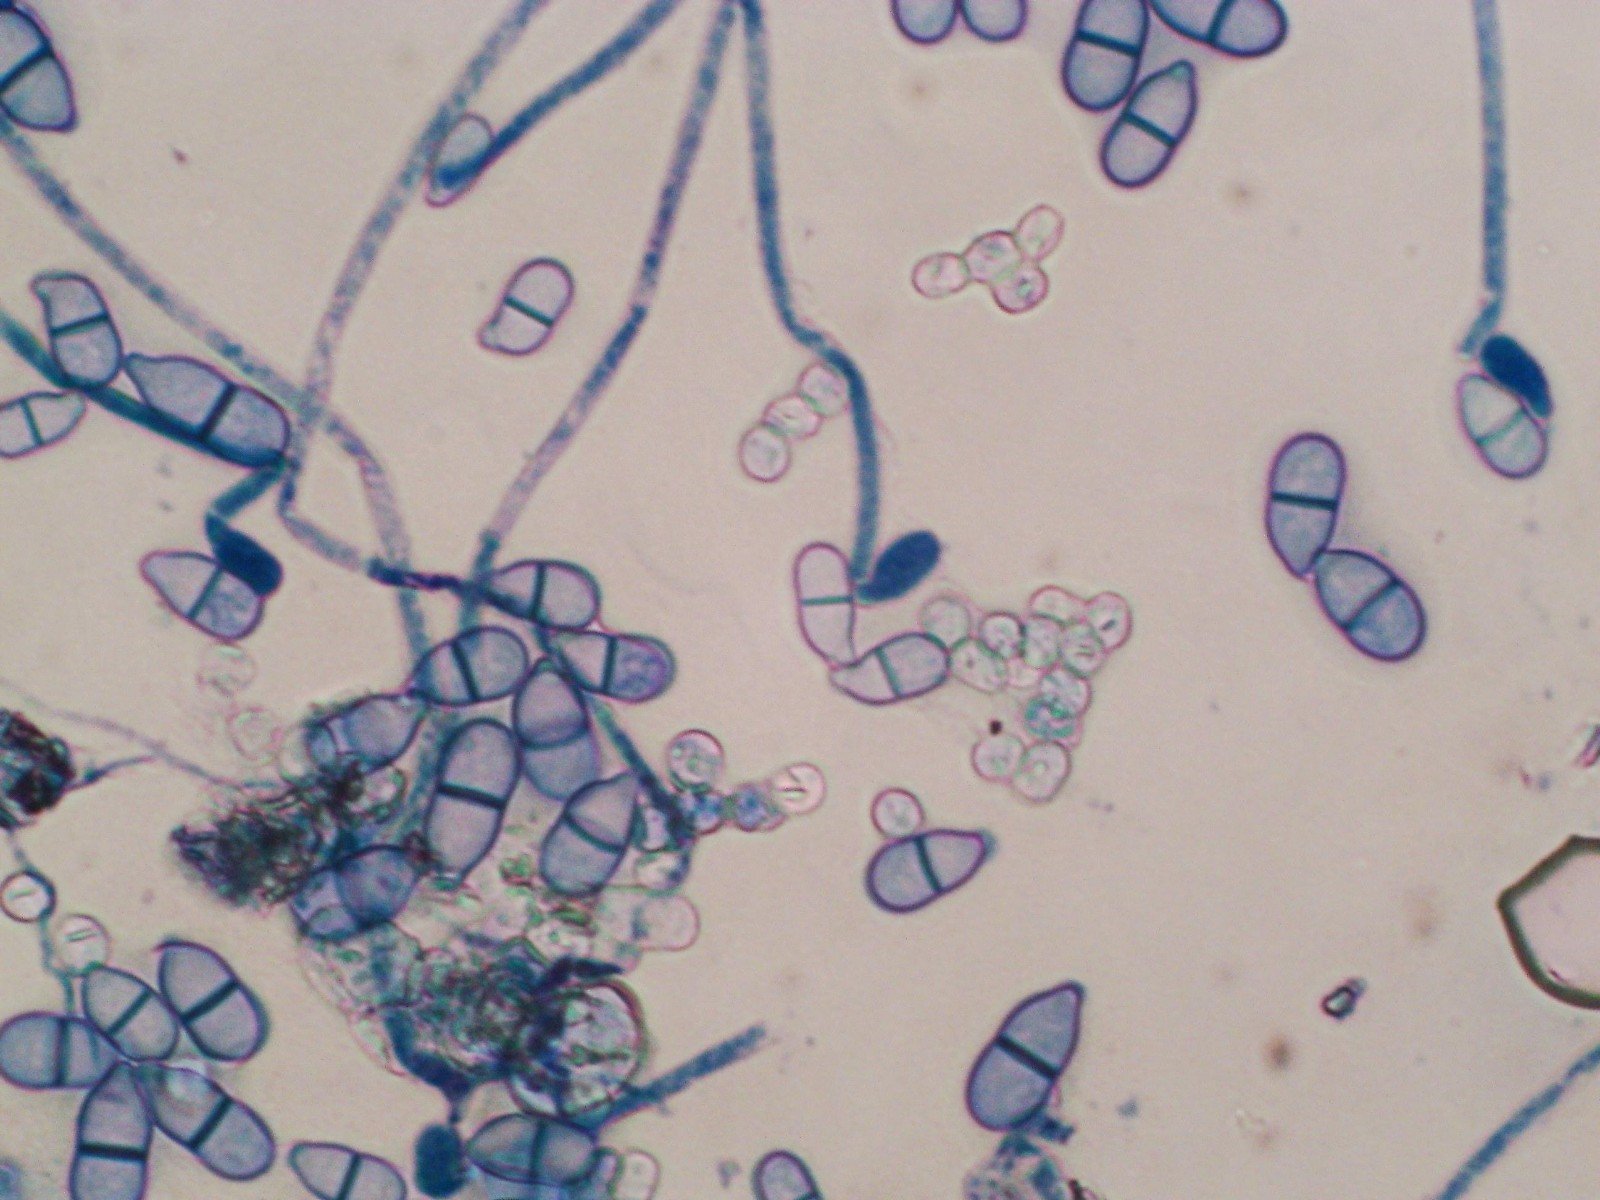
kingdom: Fungi
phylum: Ascomycota
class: Sordariomycetes
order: Hypocreales
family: Myrotheciomycetaceae
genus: Trichothecium
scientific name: Trichothecium roseum
